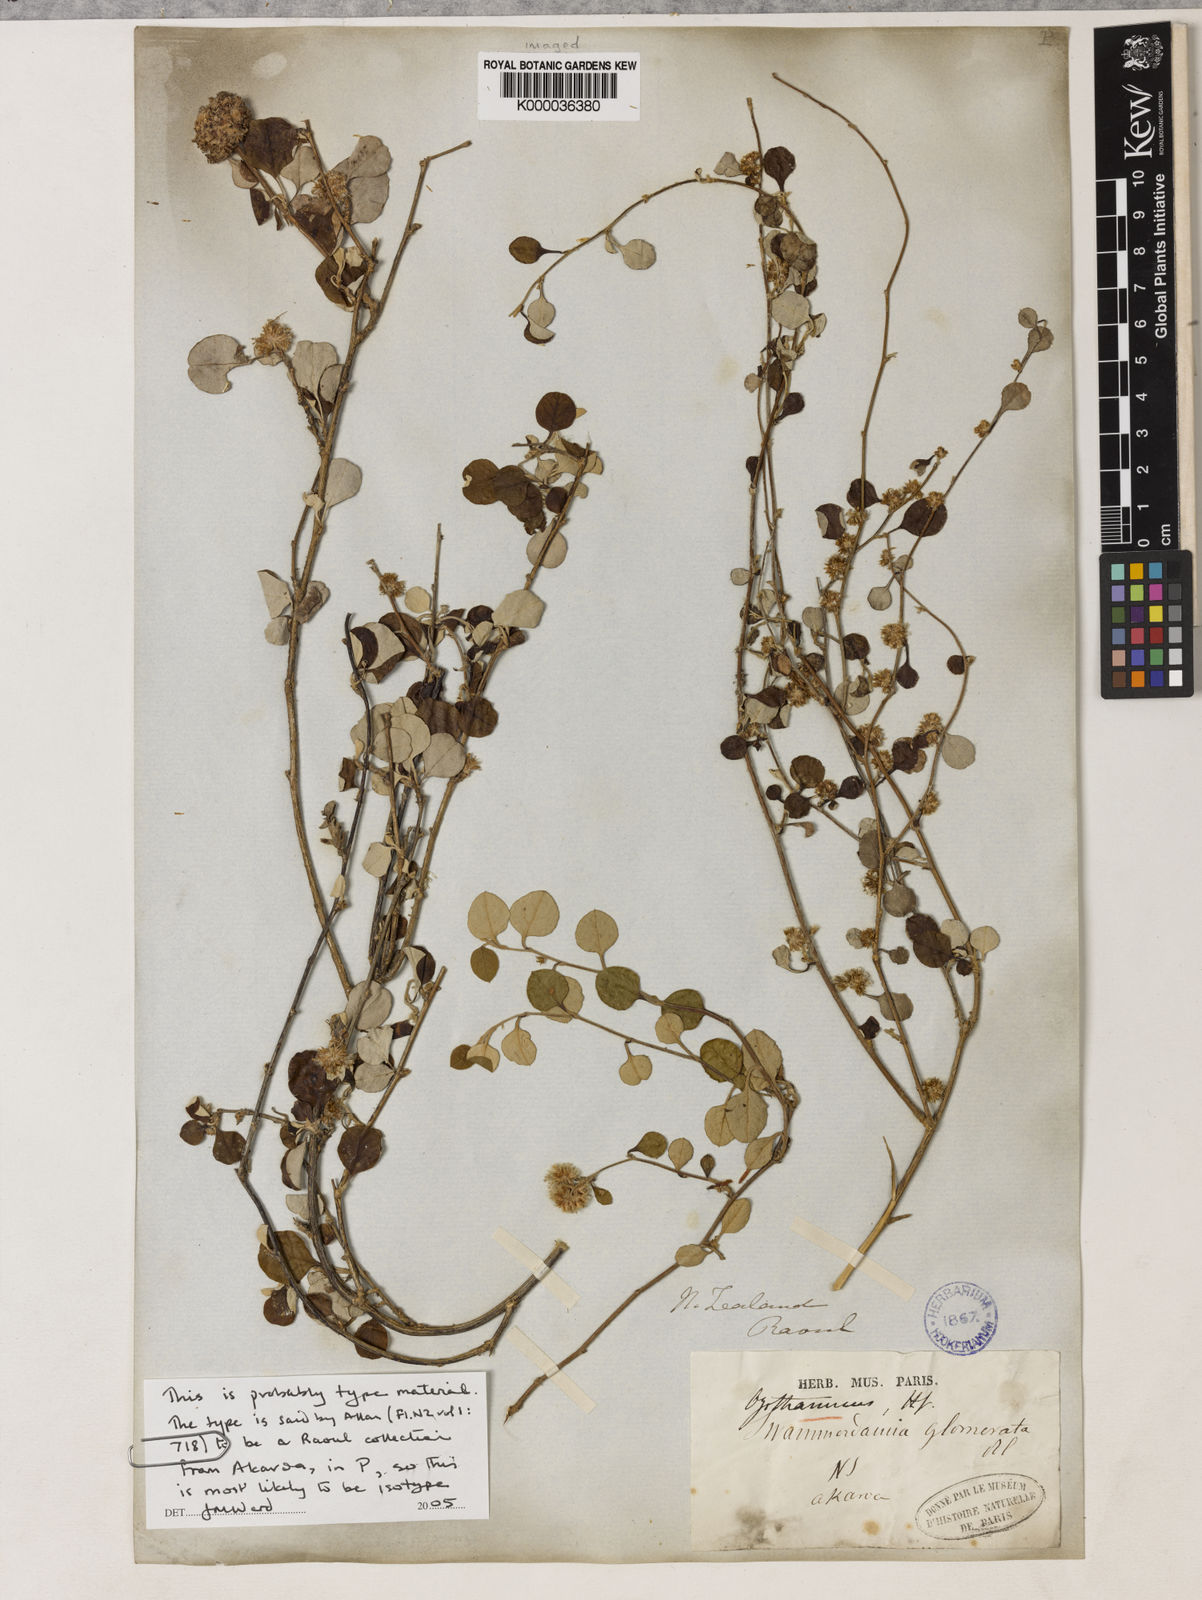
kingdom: Plantae
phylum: Tracheophyta
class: Magnoliopsida
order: Asterales
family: Asteraceae
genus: Ozothamnus
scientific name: Ozothamnus glomeratus
